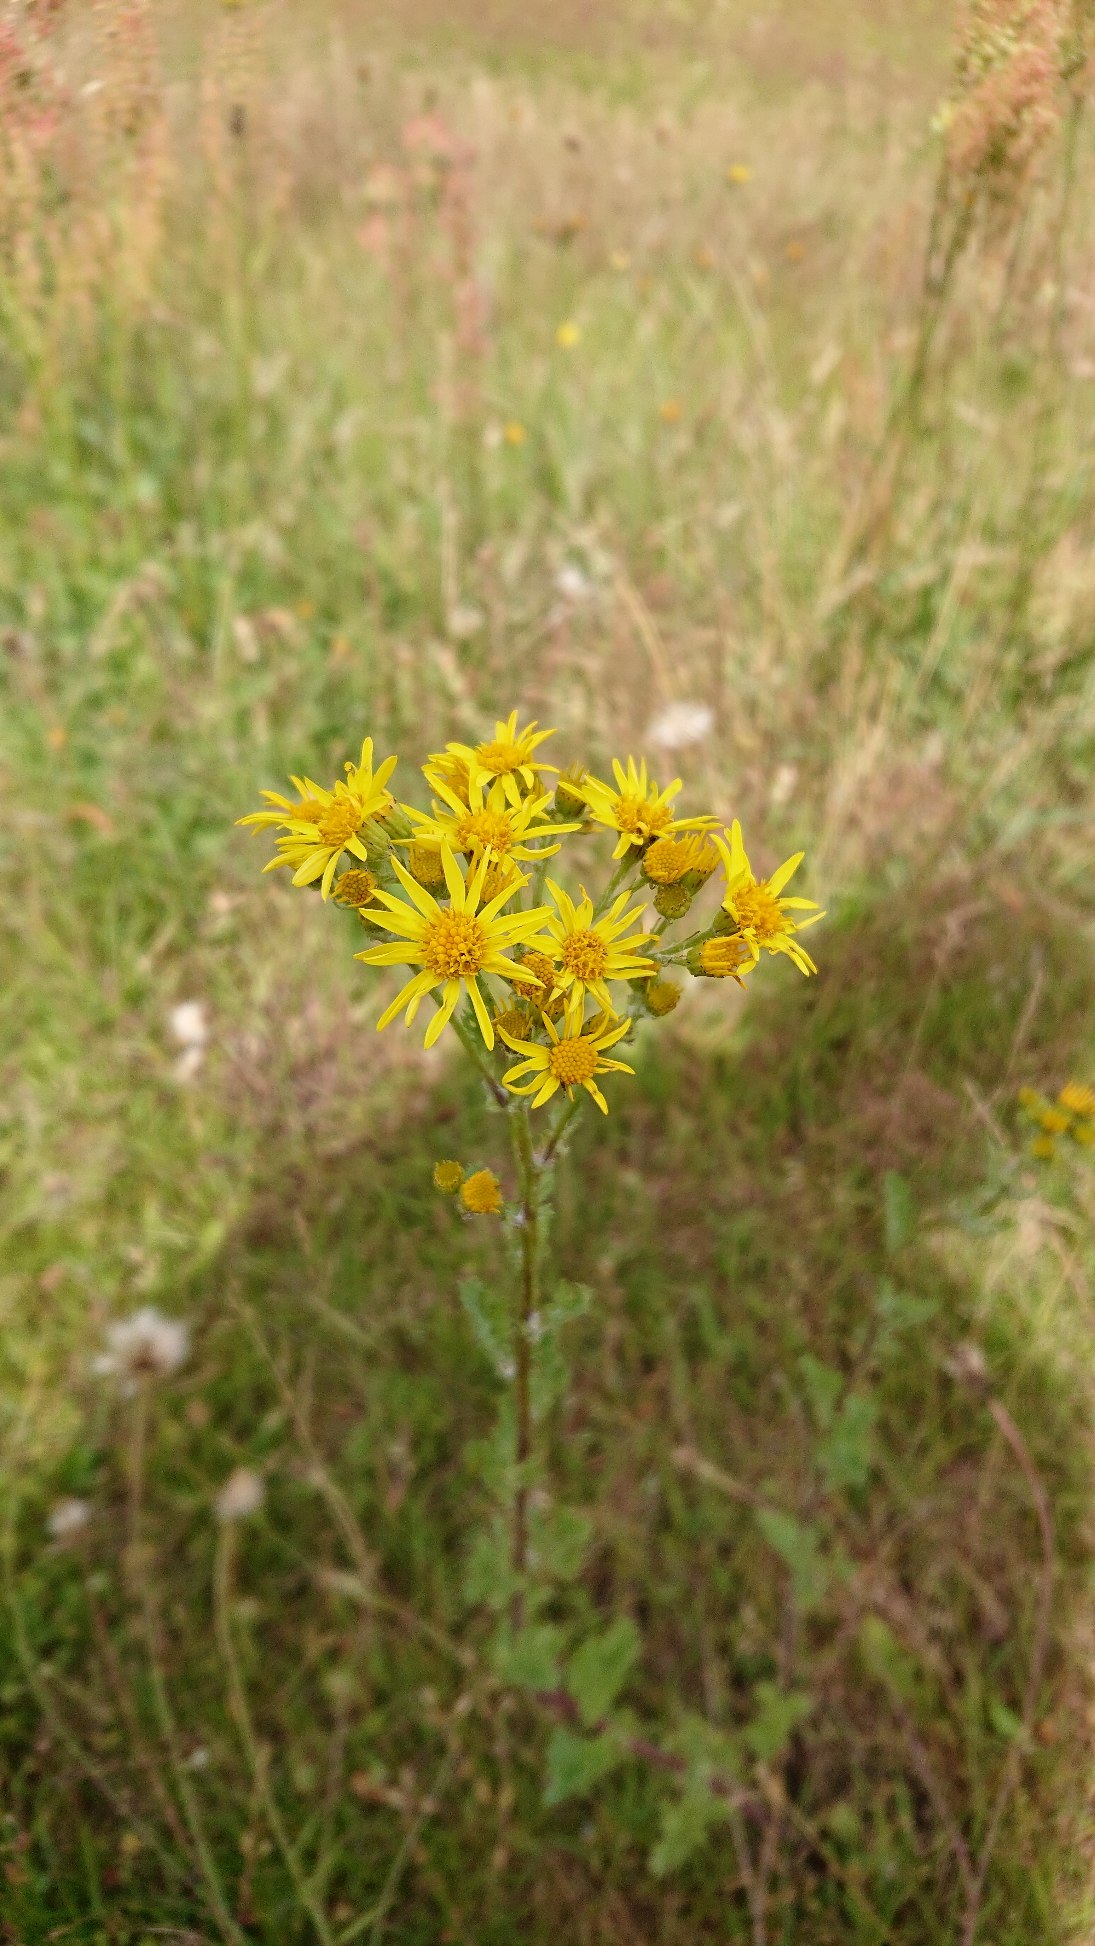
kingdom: Plantae
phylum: Tracheophyta
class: Magnoliopsida
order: Asterales
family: Asteraceae
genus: Jacobaea
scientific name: Jacobaea vulgaris
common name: Eng-brandbæger
